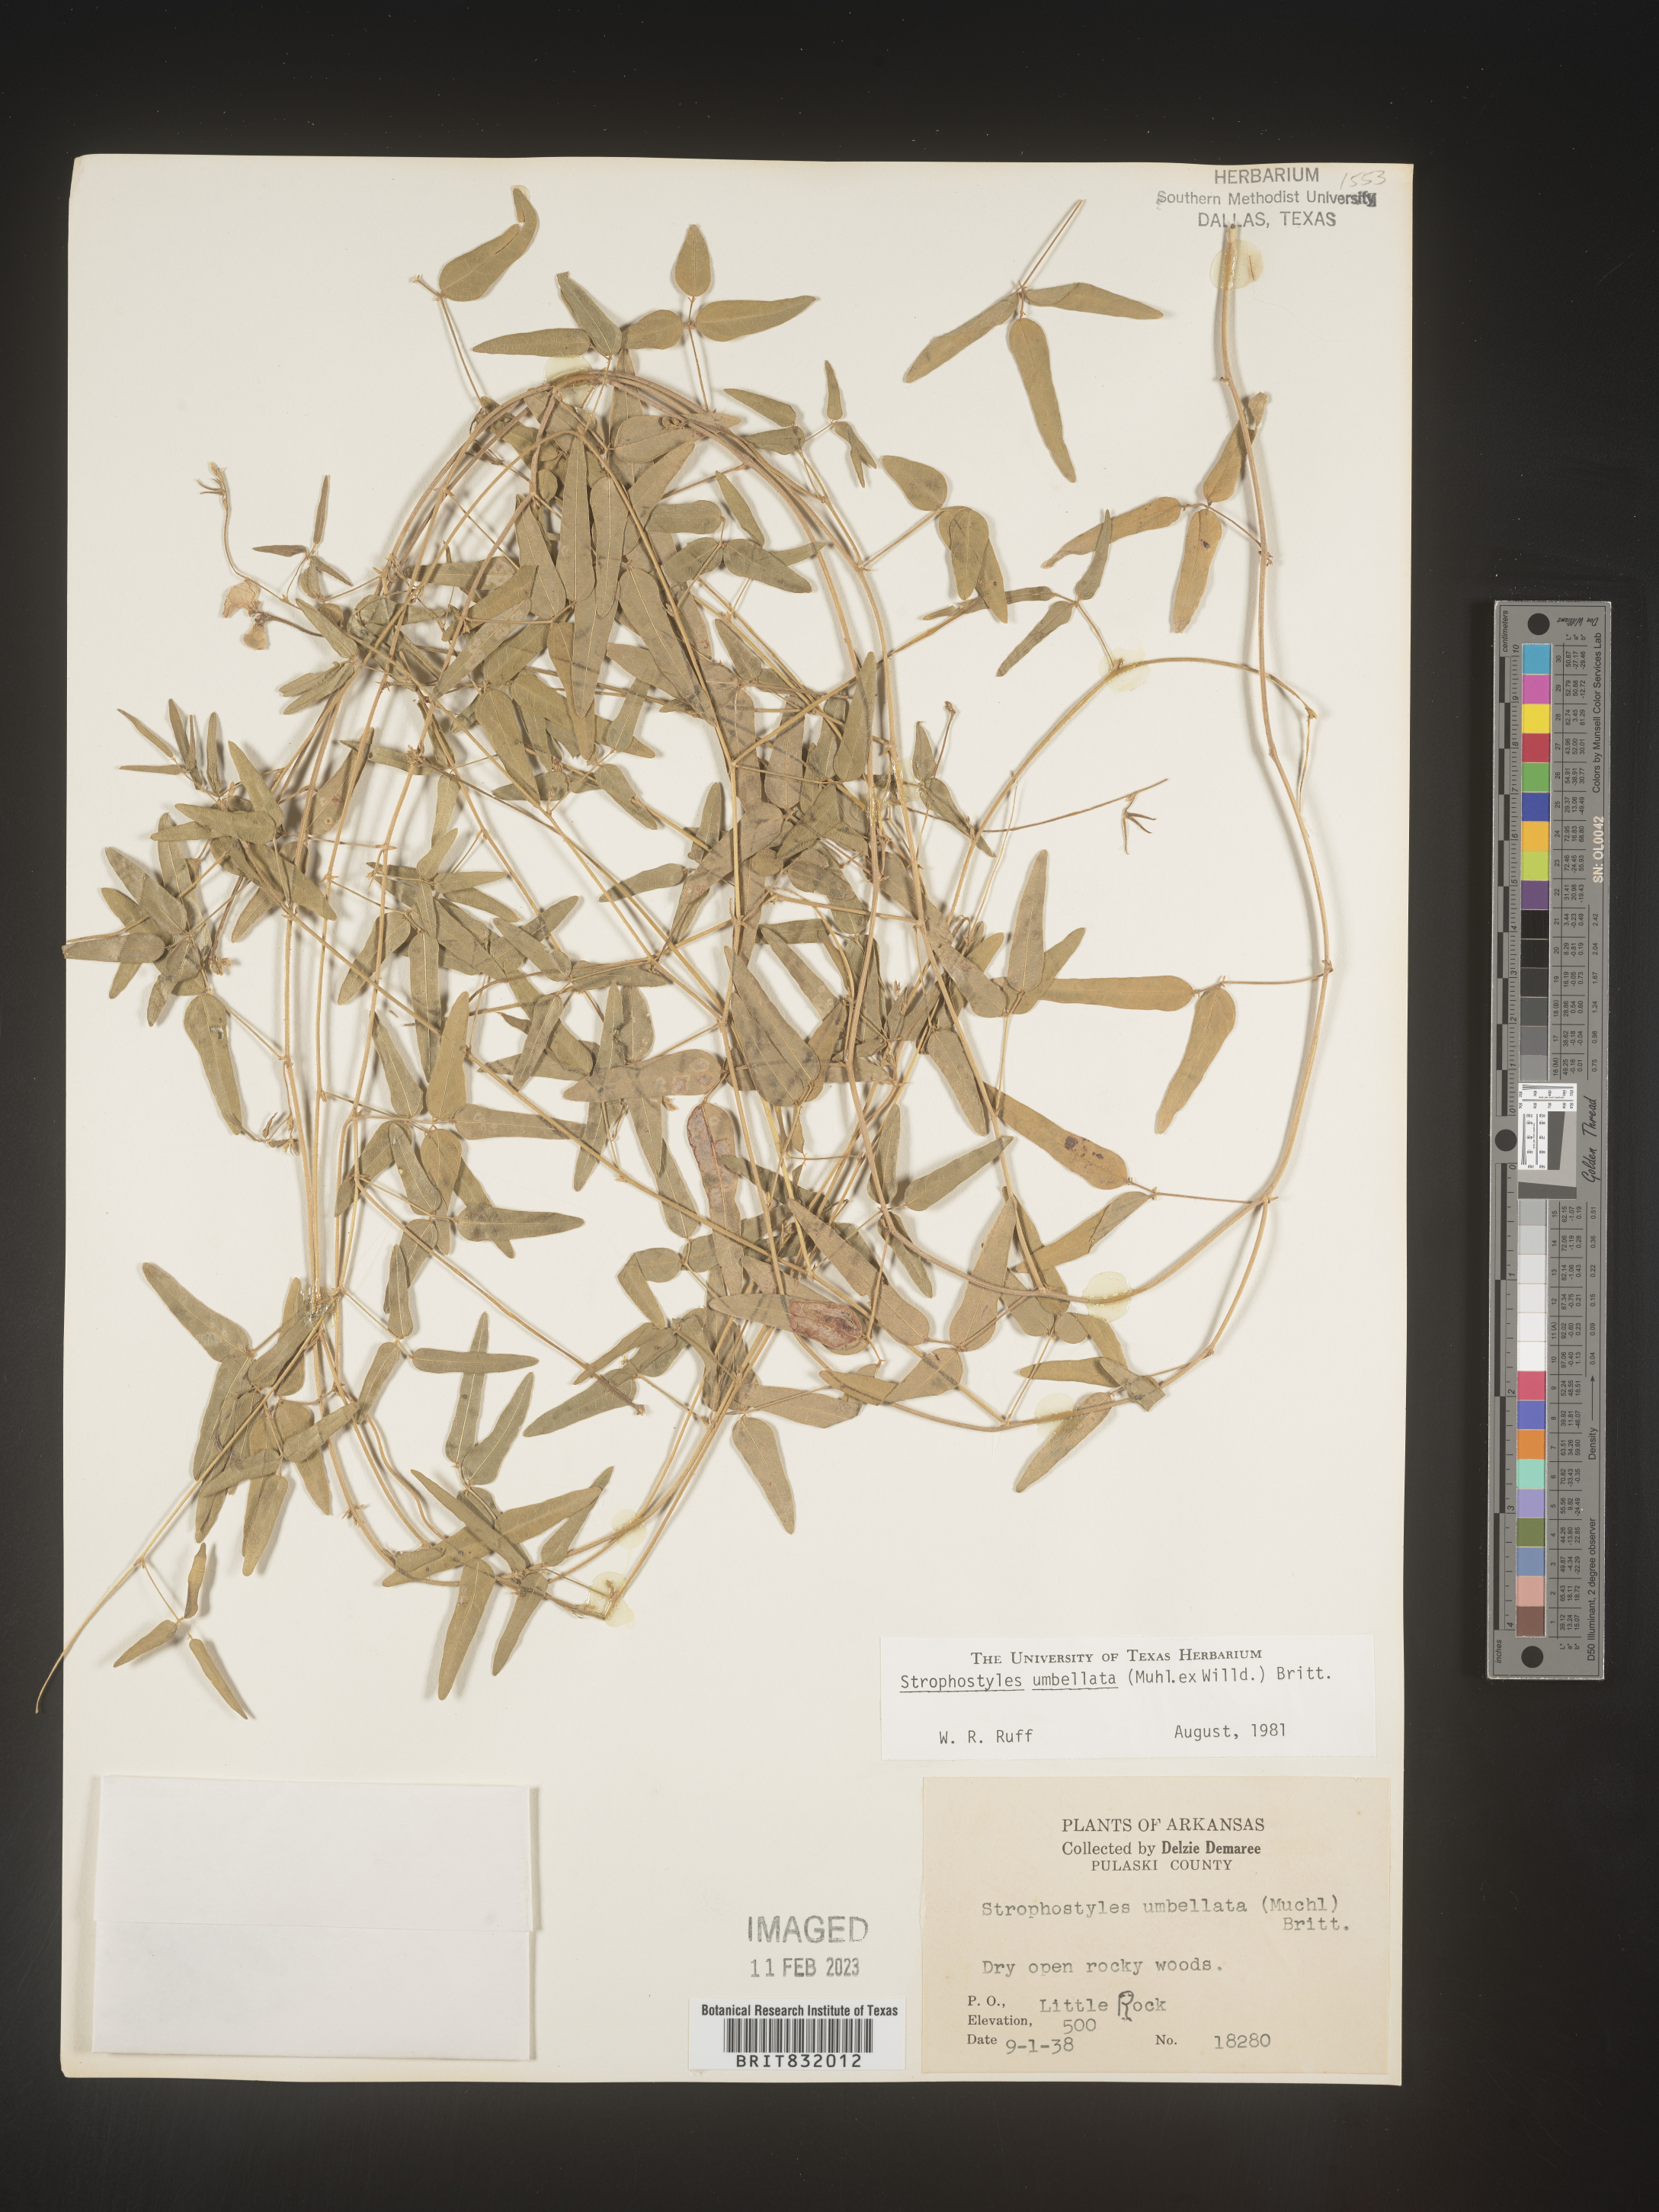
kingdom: Plantae
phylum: Tracheophyta
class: Magnoliopsida
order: Fabales
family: Fabaceae
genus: Strophostyles
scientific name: Strophostyles umbellata
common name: Perennial wild bean
